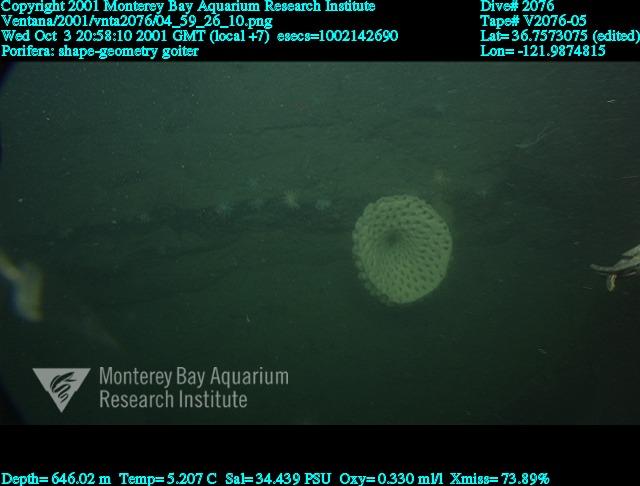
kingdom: Animalia
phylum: Porifera
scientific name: Porifera
